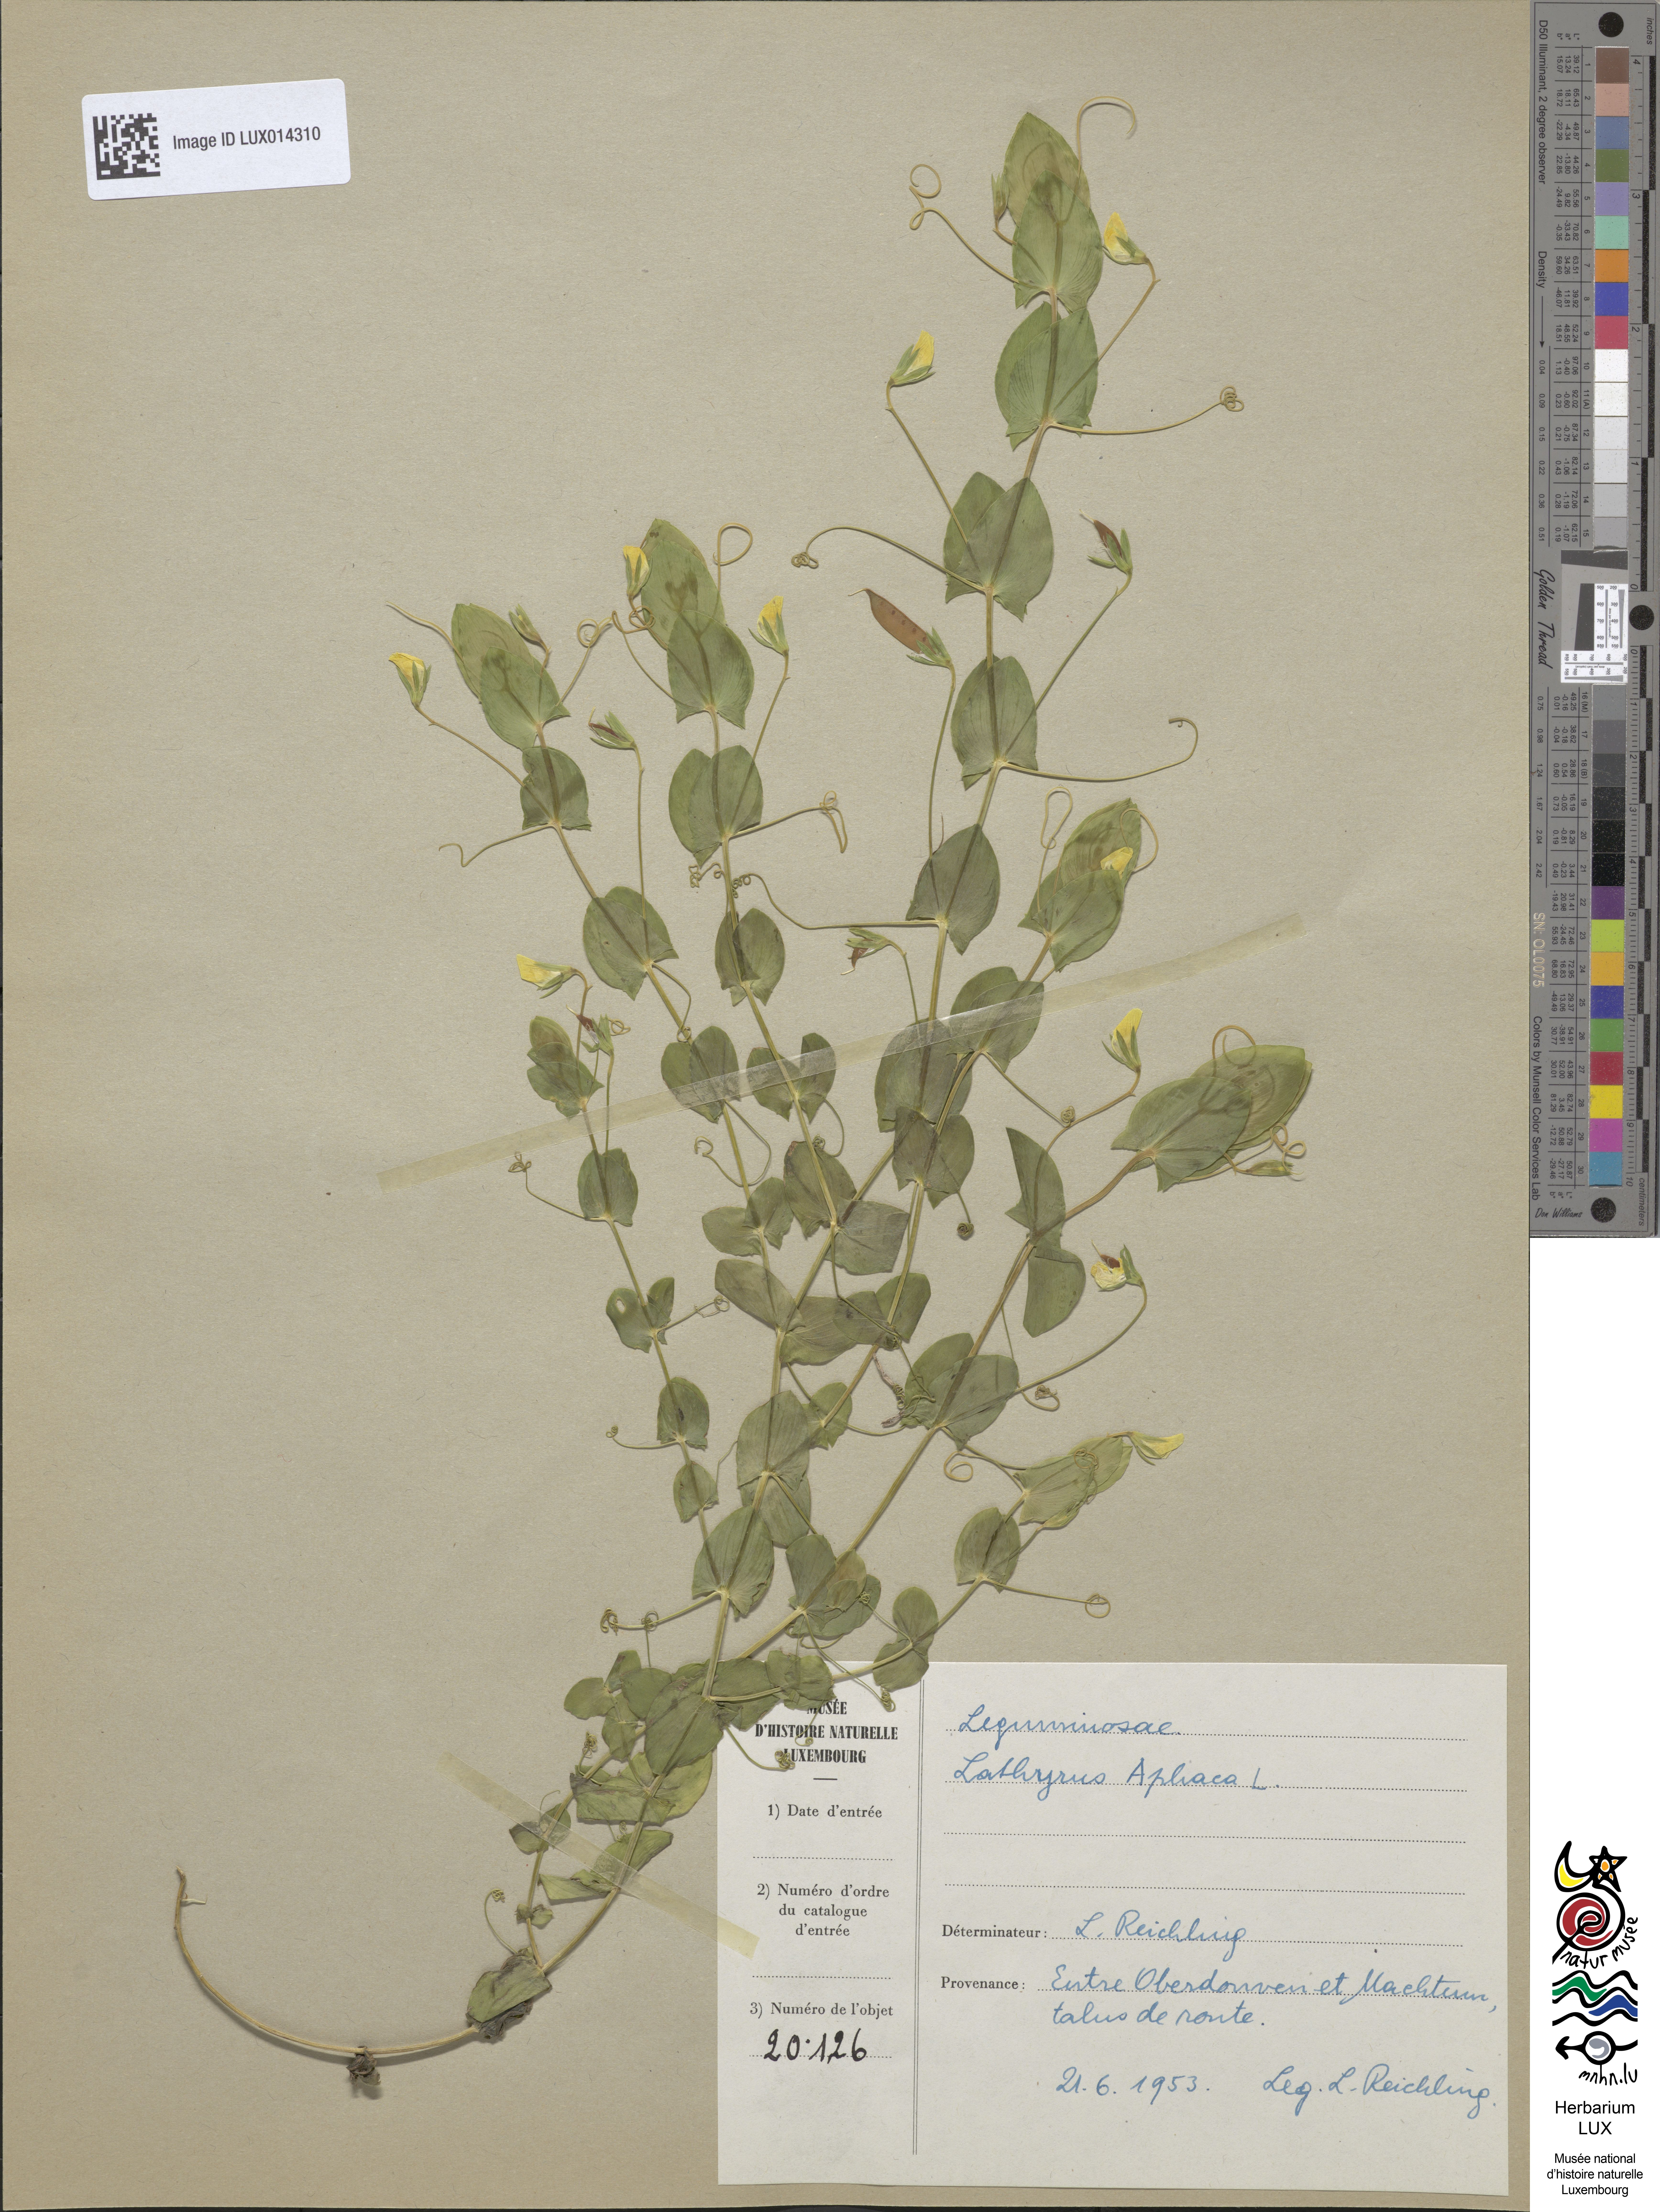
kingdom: Plantae
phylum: Tracheophyta
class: Magnoliopsida
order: Fabales
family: Fabaceae
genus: Lathyrus
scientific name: Lathyrus aphaca
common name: Yellow vetchling
